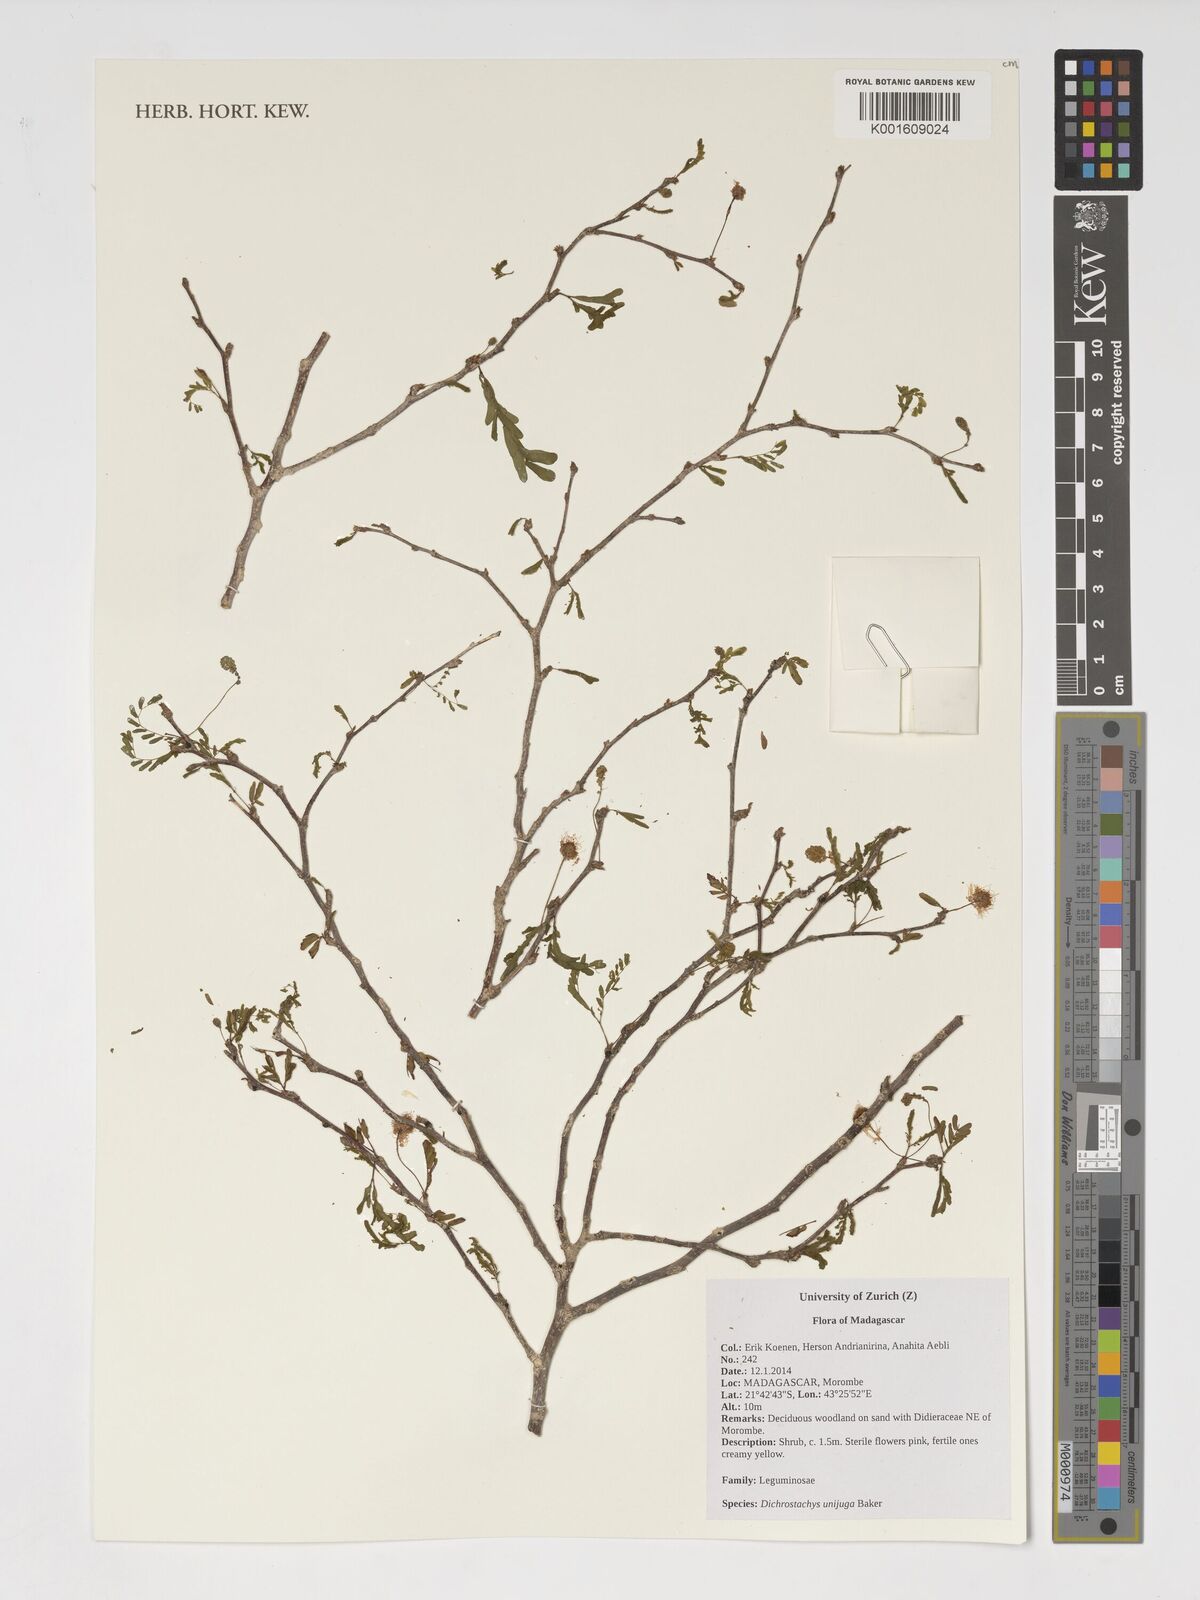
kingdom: Plantae
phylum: Tracheophyta
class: Magnoliopsida
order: Fabales
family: Fabaceae
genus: Dichrostachys
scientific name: Dichrostachys unijuga
